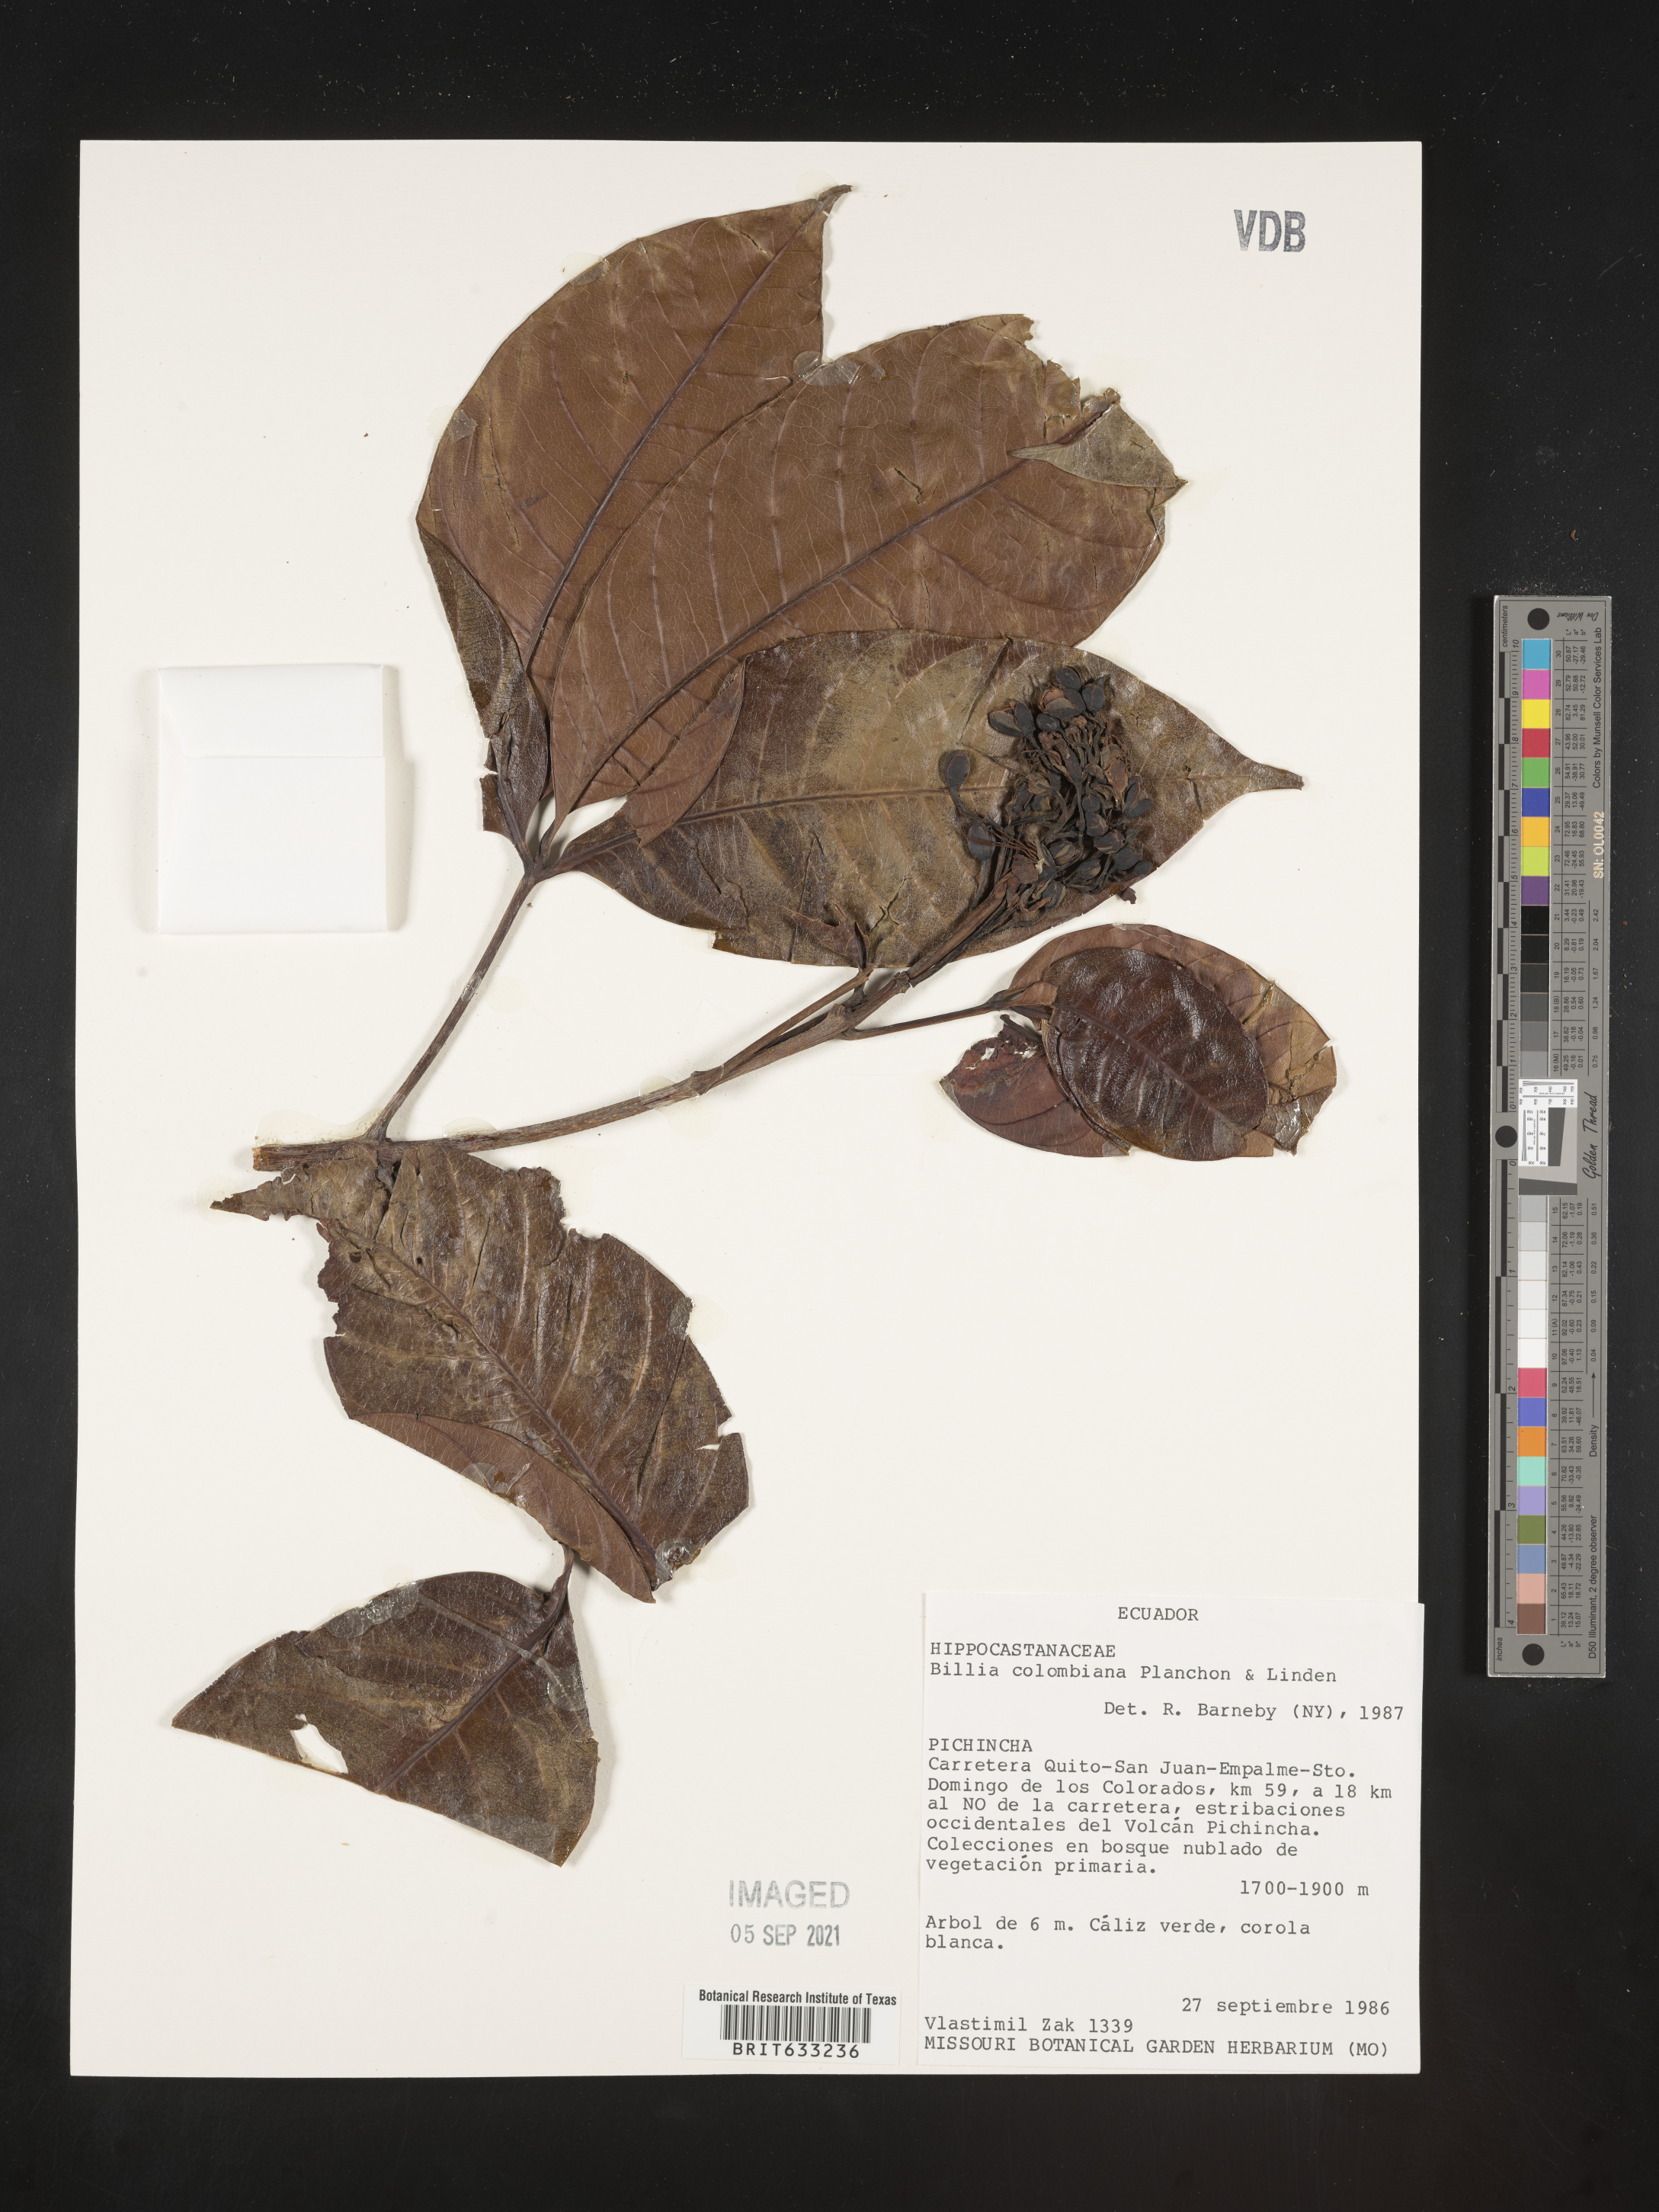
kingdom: Plantae
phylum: Tracheophyta
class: Magnoliopsida
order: Sapindales
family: Sapindaceae
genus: Billia
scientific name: Billia
